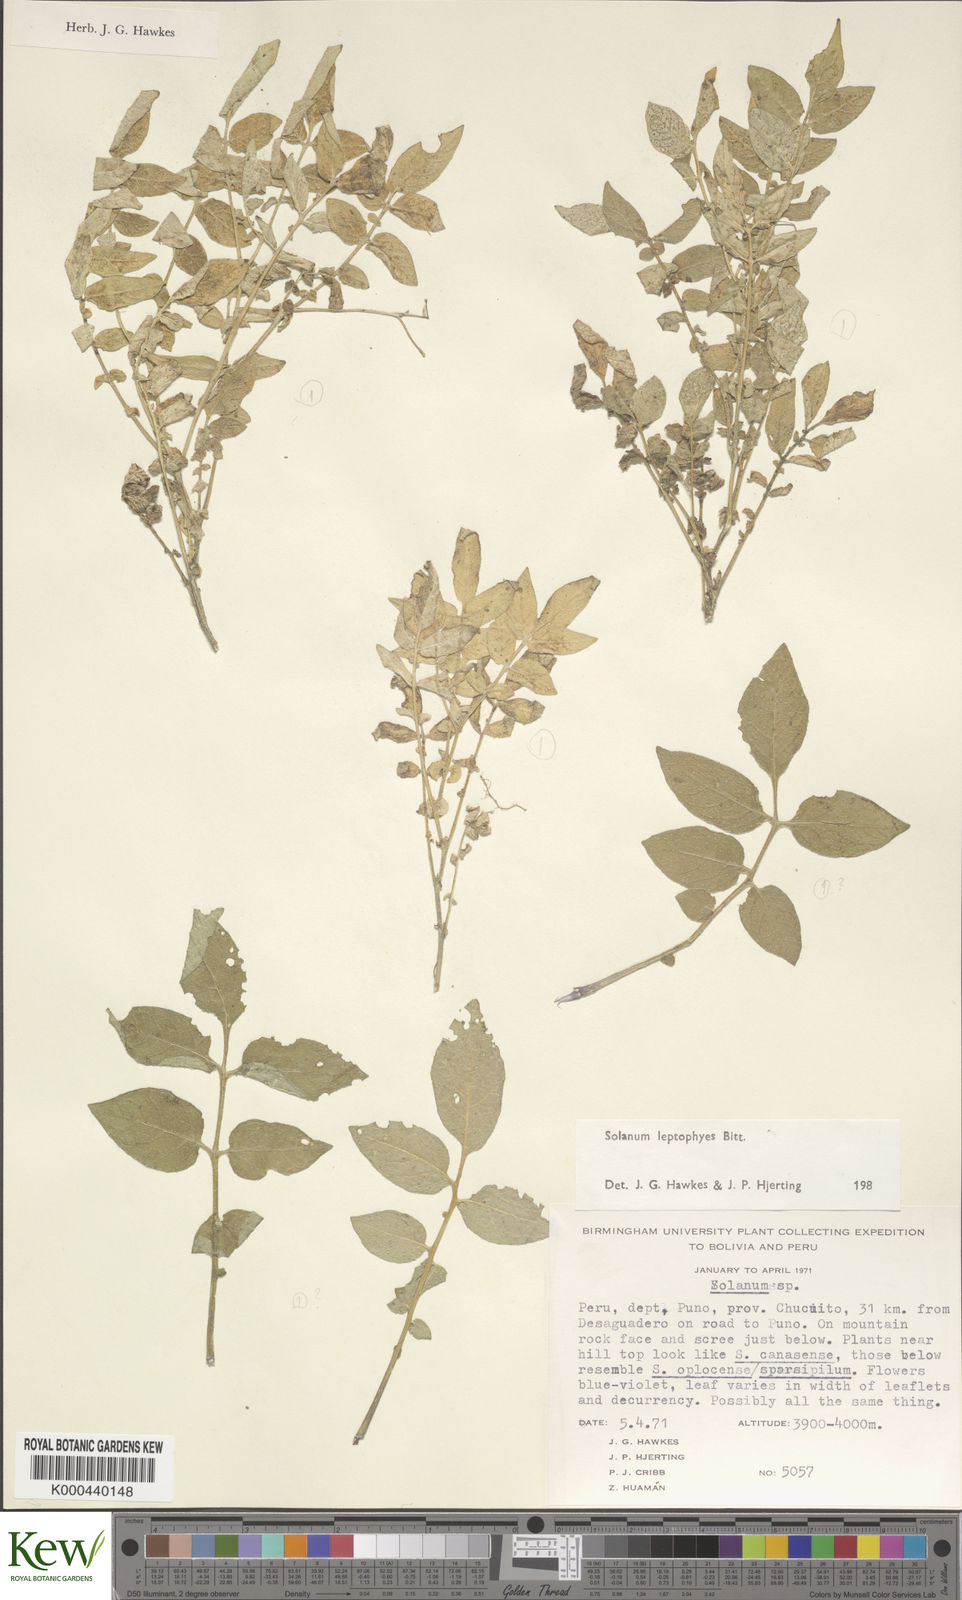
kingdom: Plantae
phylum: Tracheophyta
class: Magnoliopsida
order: Solanales
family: Solanaceae
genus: Solanum
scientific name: Solanum candolleanum
